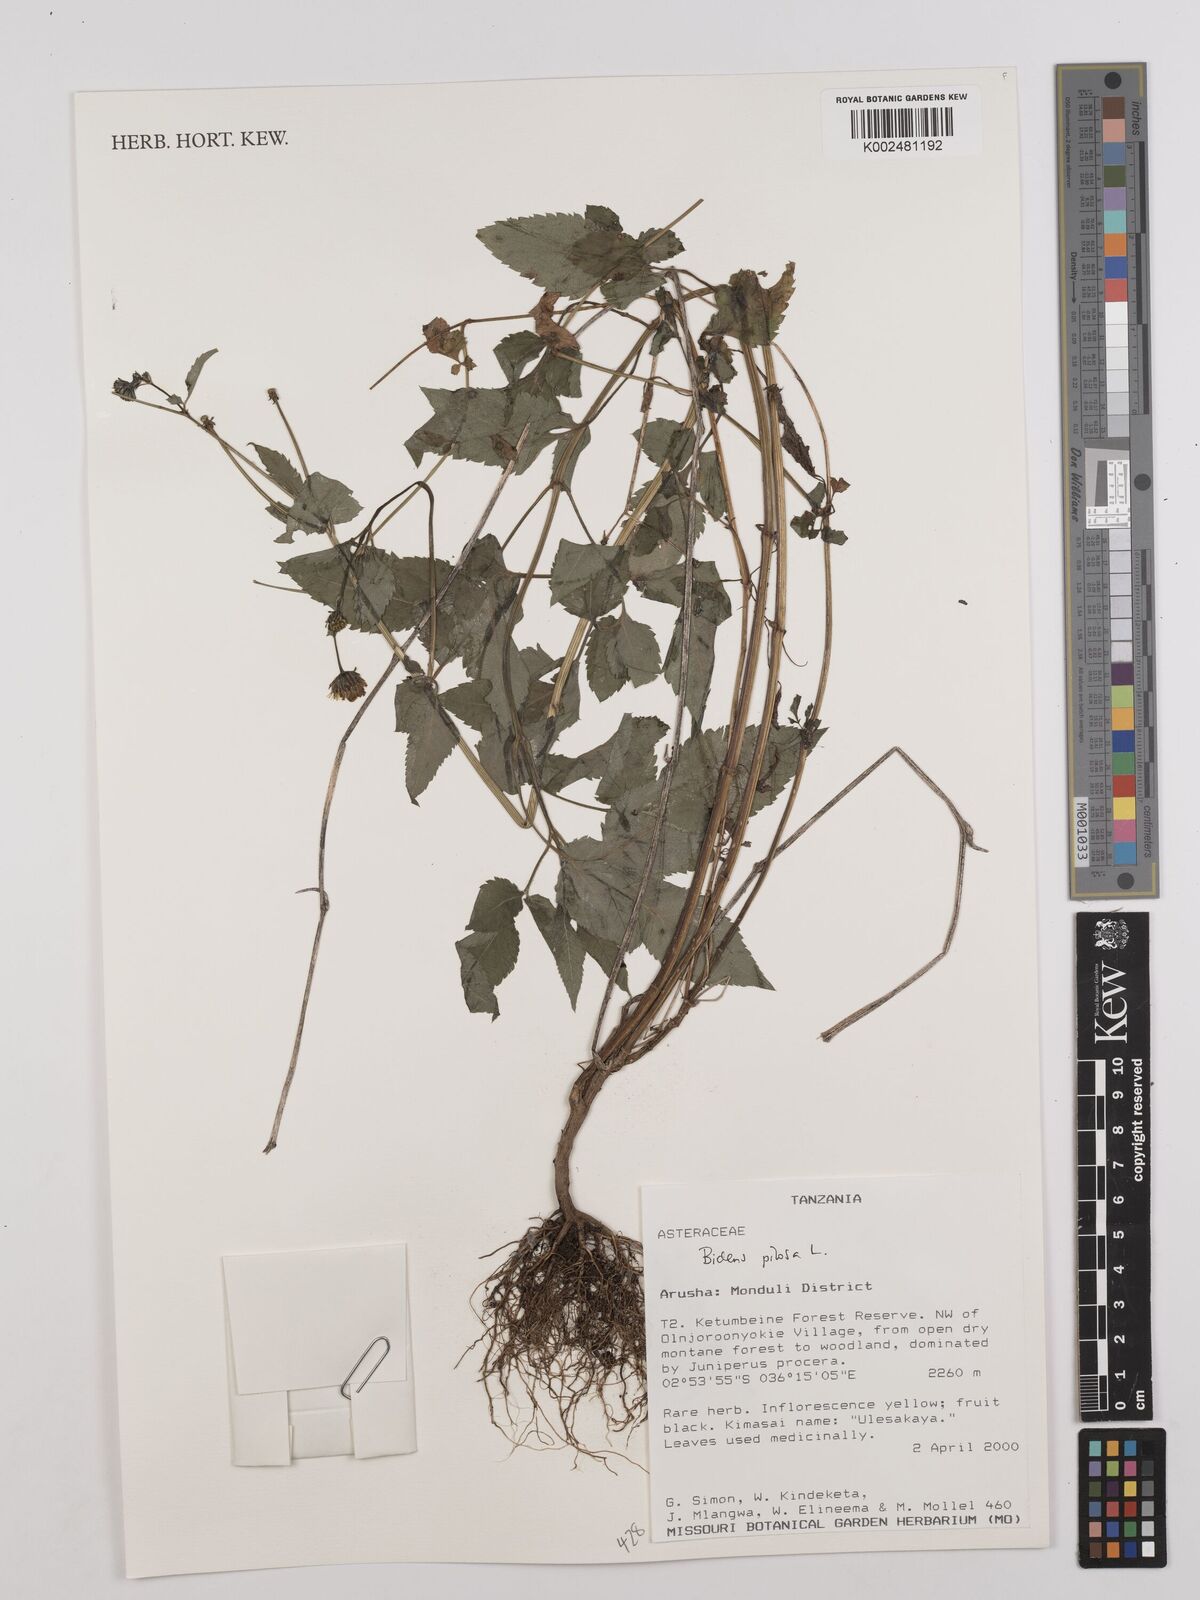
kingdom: Plantae
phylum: Tracheophyta
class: Magnoliopsida
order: Asterales
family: Asteraceae
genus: Bidens
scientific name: Bidens pilosa
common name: Black-jack
